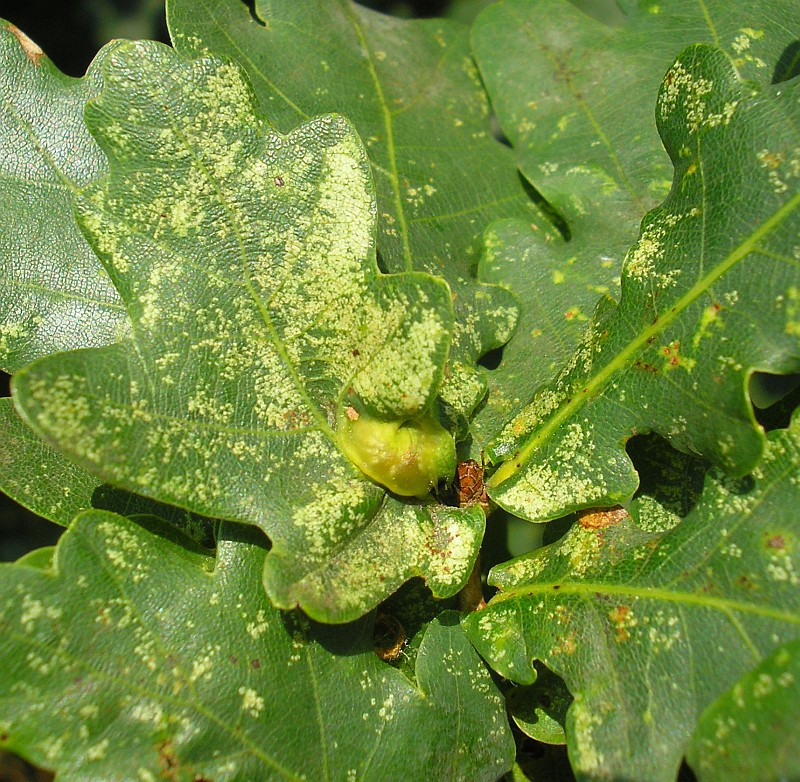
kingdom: Animalia
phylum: Arthropoda
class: Insecta
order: Hymenoptera
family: Cynipidae
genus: Andricus
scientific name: Andricus curvator
